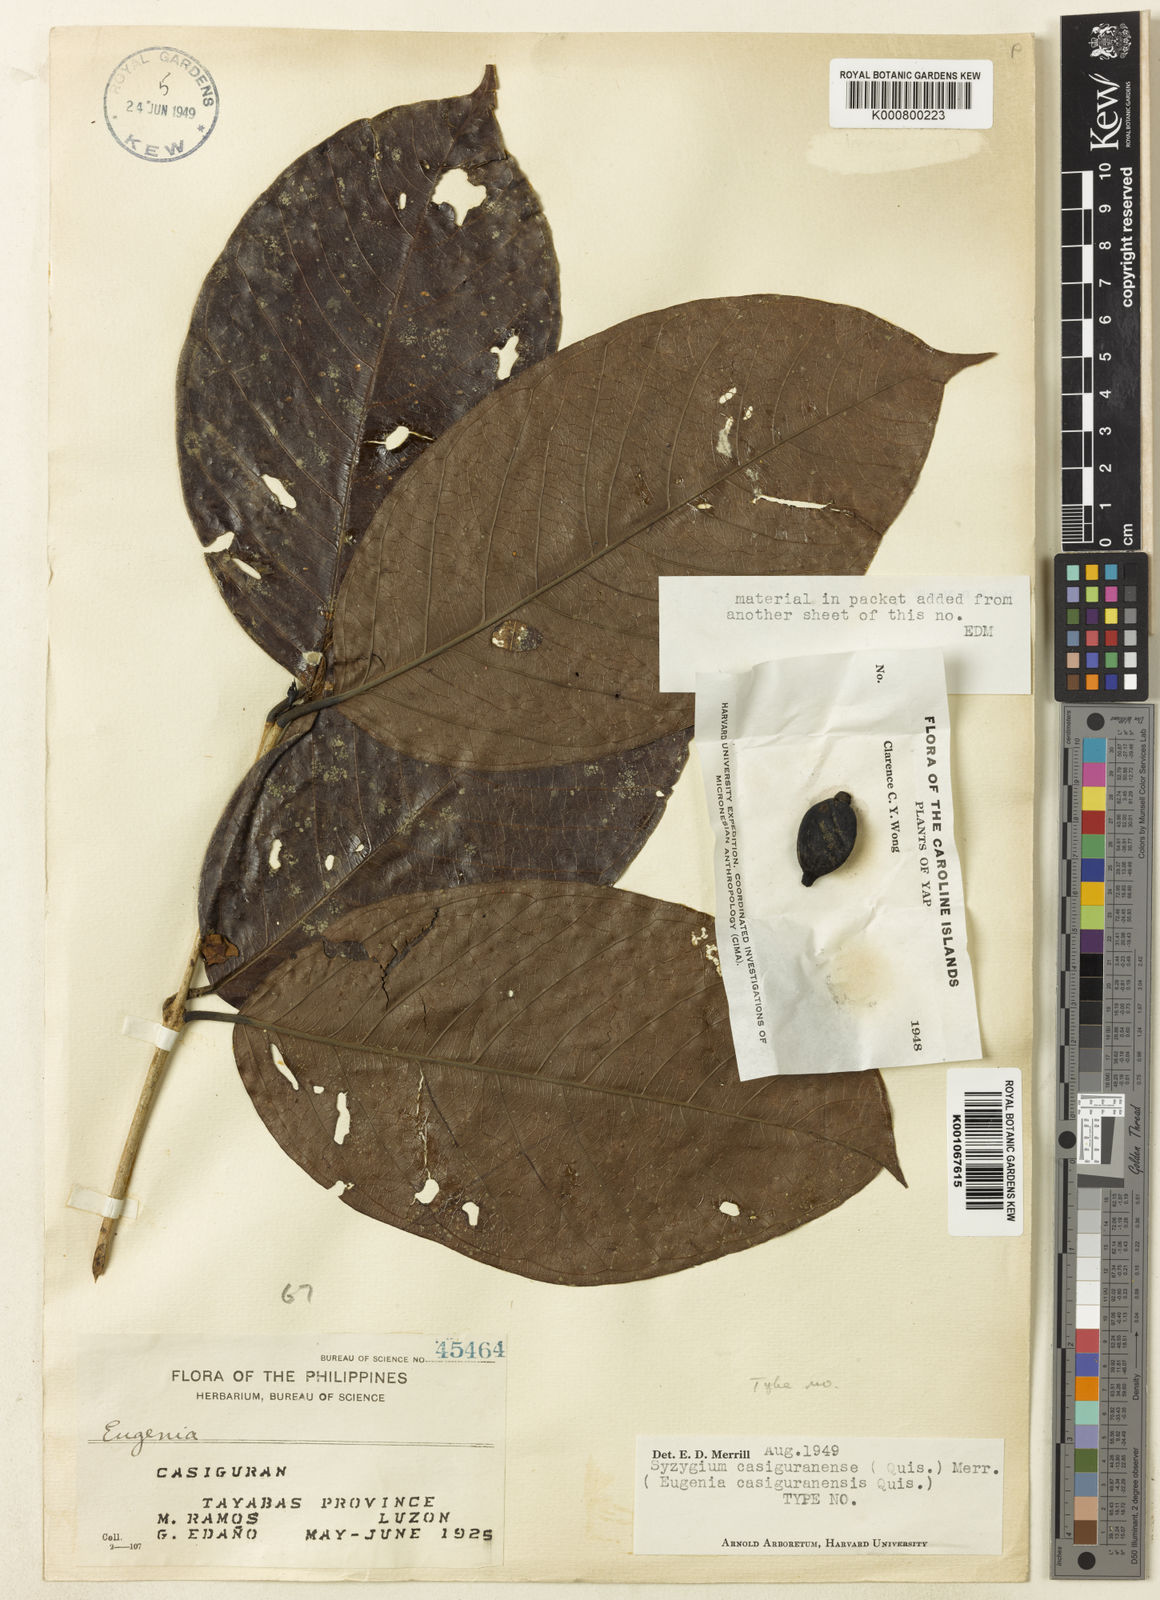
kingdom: Plantae
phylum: Tracheophyta
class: Magnoliopsida
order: Myrtales
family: Myrtaceae
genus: Syzygium
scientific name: Syzygium casiguranense
